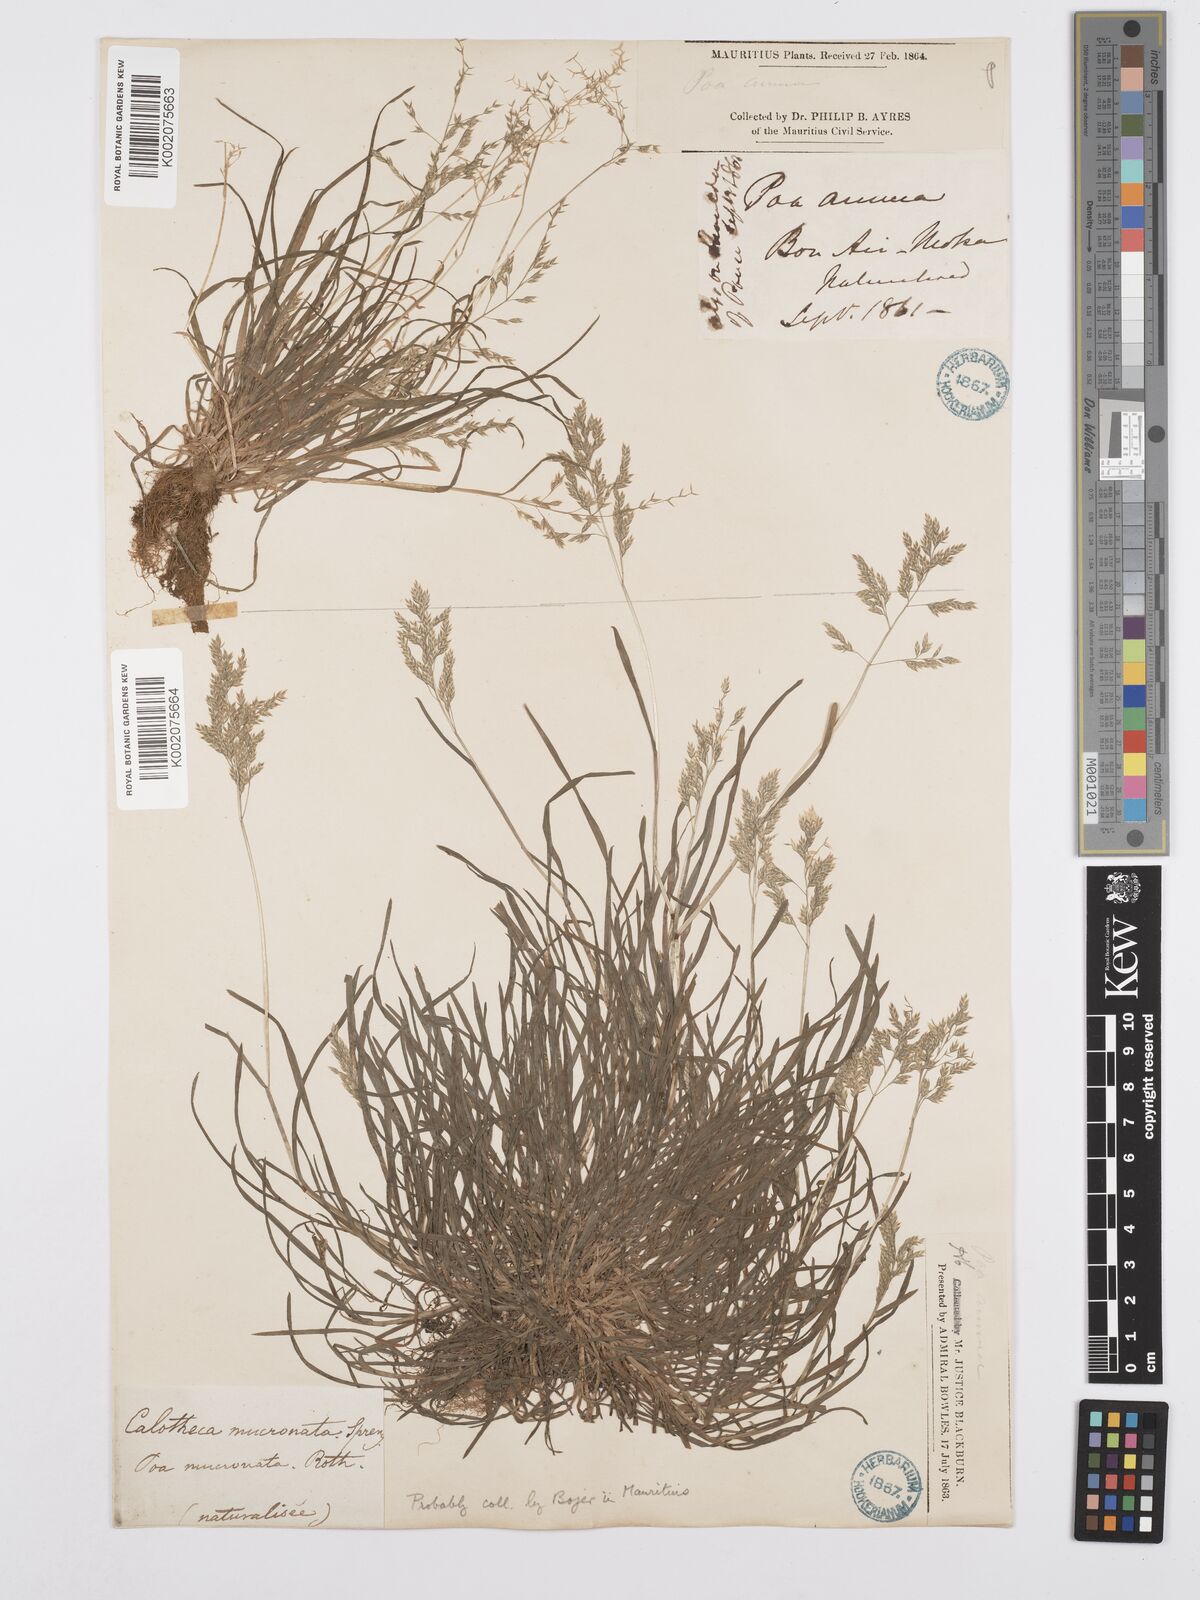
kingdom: Plantae
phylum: Tracheophyta
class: Liliopsida
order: Poales
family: Poaceae
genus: Poa
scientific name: Poa annua
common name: Annual bluegrass
